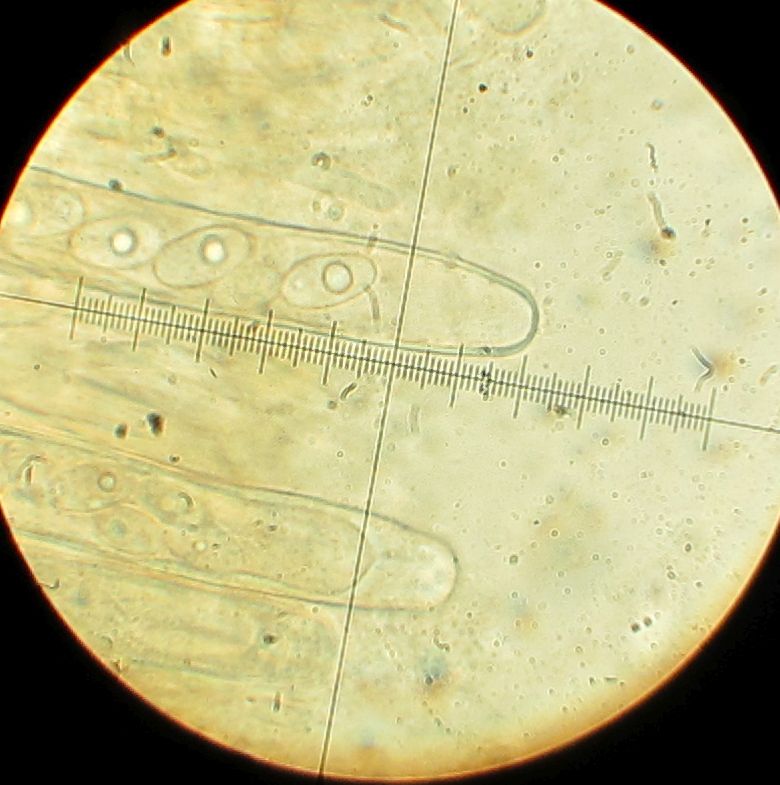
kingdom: Fungi
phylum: Ascomycota
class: Pezizomycetes
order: Pezizales
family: Pezizaceae
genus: Peziza
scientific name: Peziza
